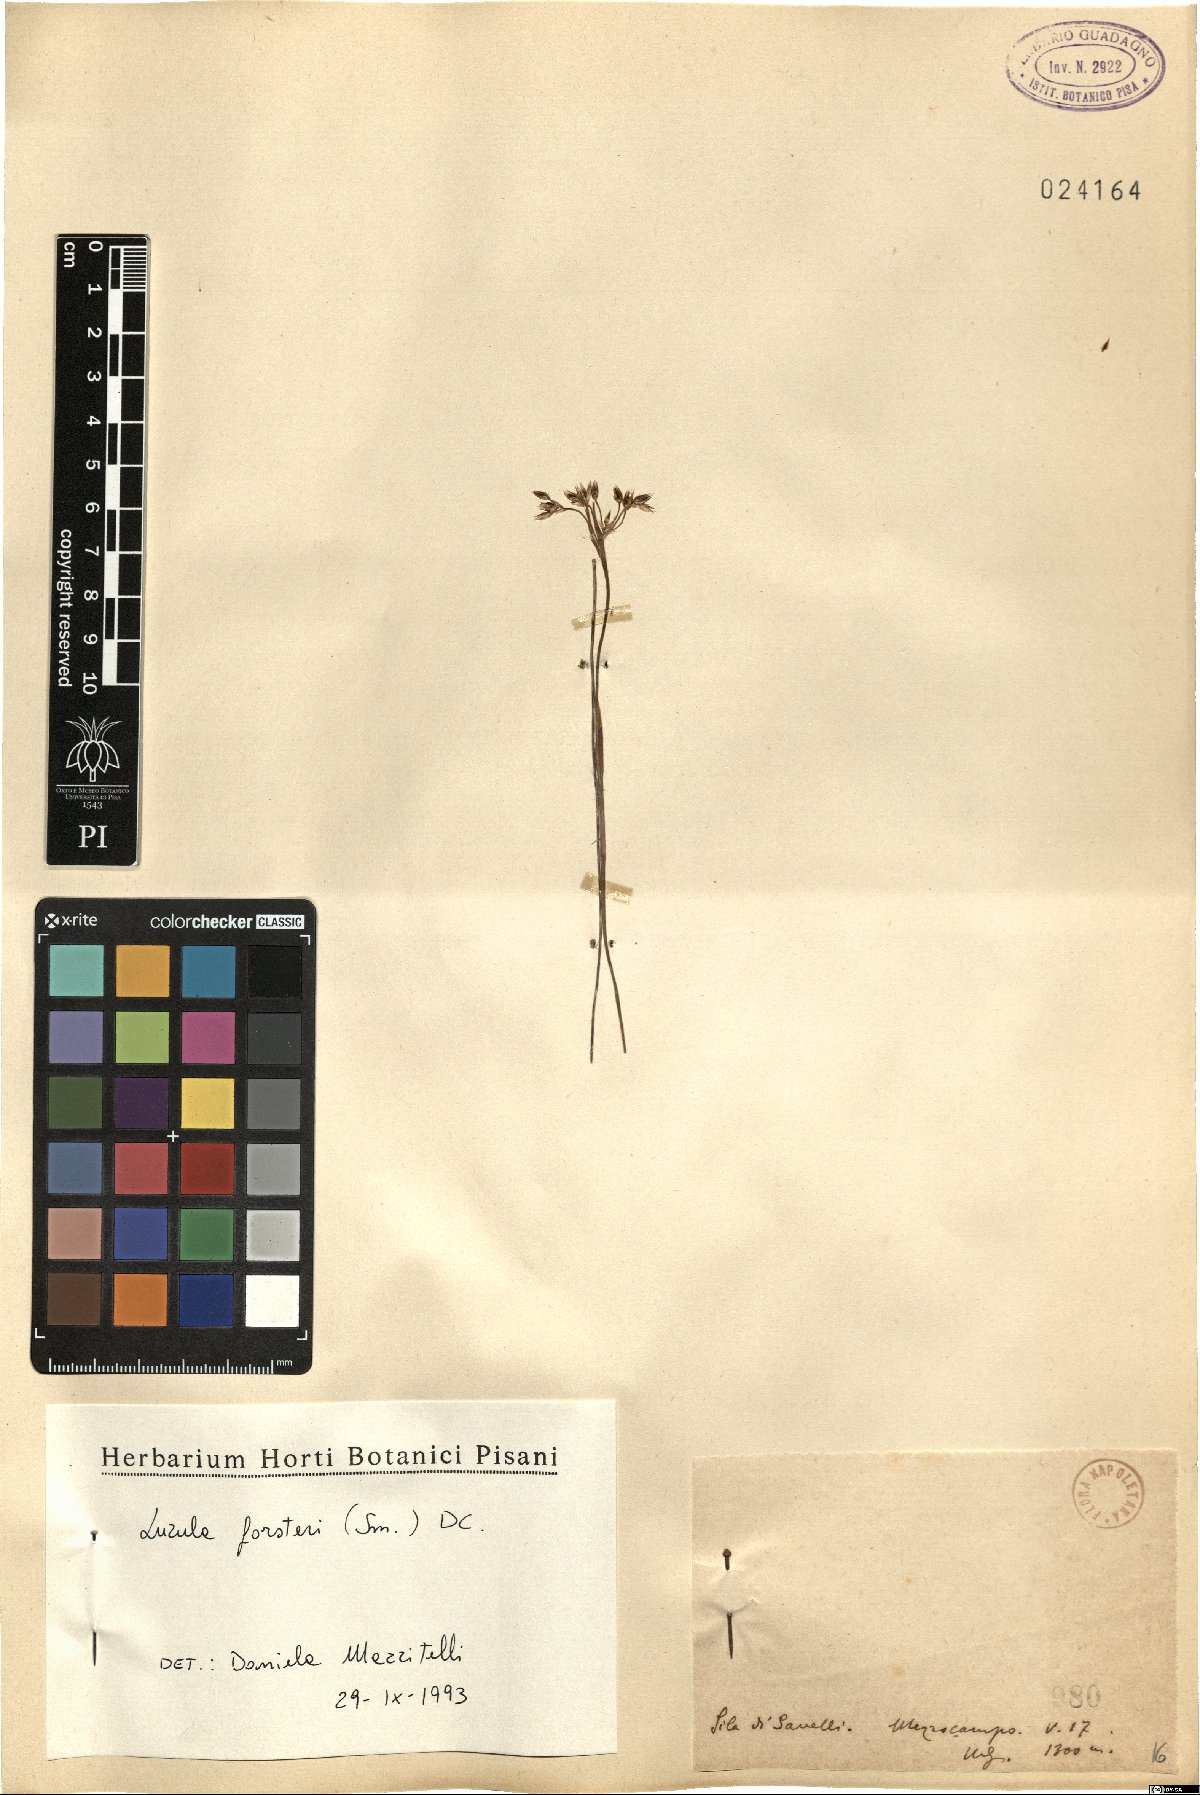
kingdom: Plantae
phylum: Tracheophyta
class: Liliopsida
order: Poales
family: Juncaceae
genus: Luzula
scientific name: Luzula forsteri
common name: Southern wood-rush
